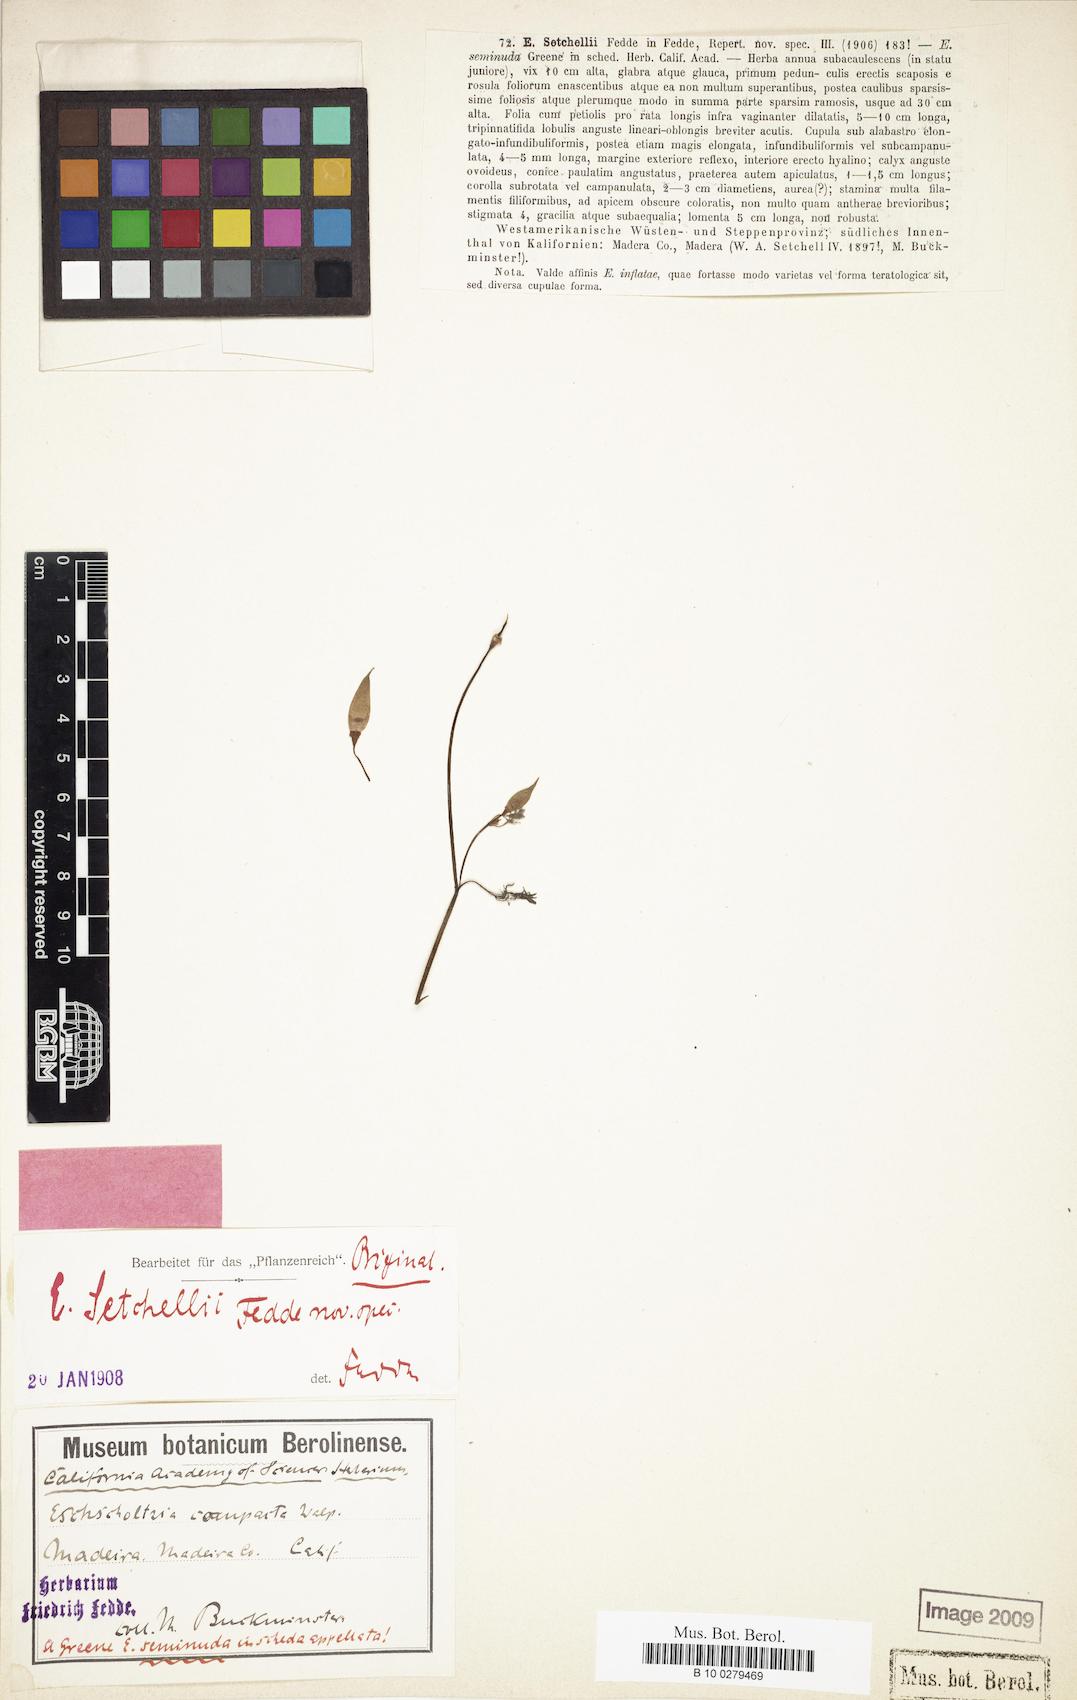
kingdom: Plantae
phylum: Tracheophyta
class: Magnoliopsida
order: Ranunculales
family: Papaveraceae
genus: Eschscholzia
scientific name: Eschscholzia californica
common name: California poppy
